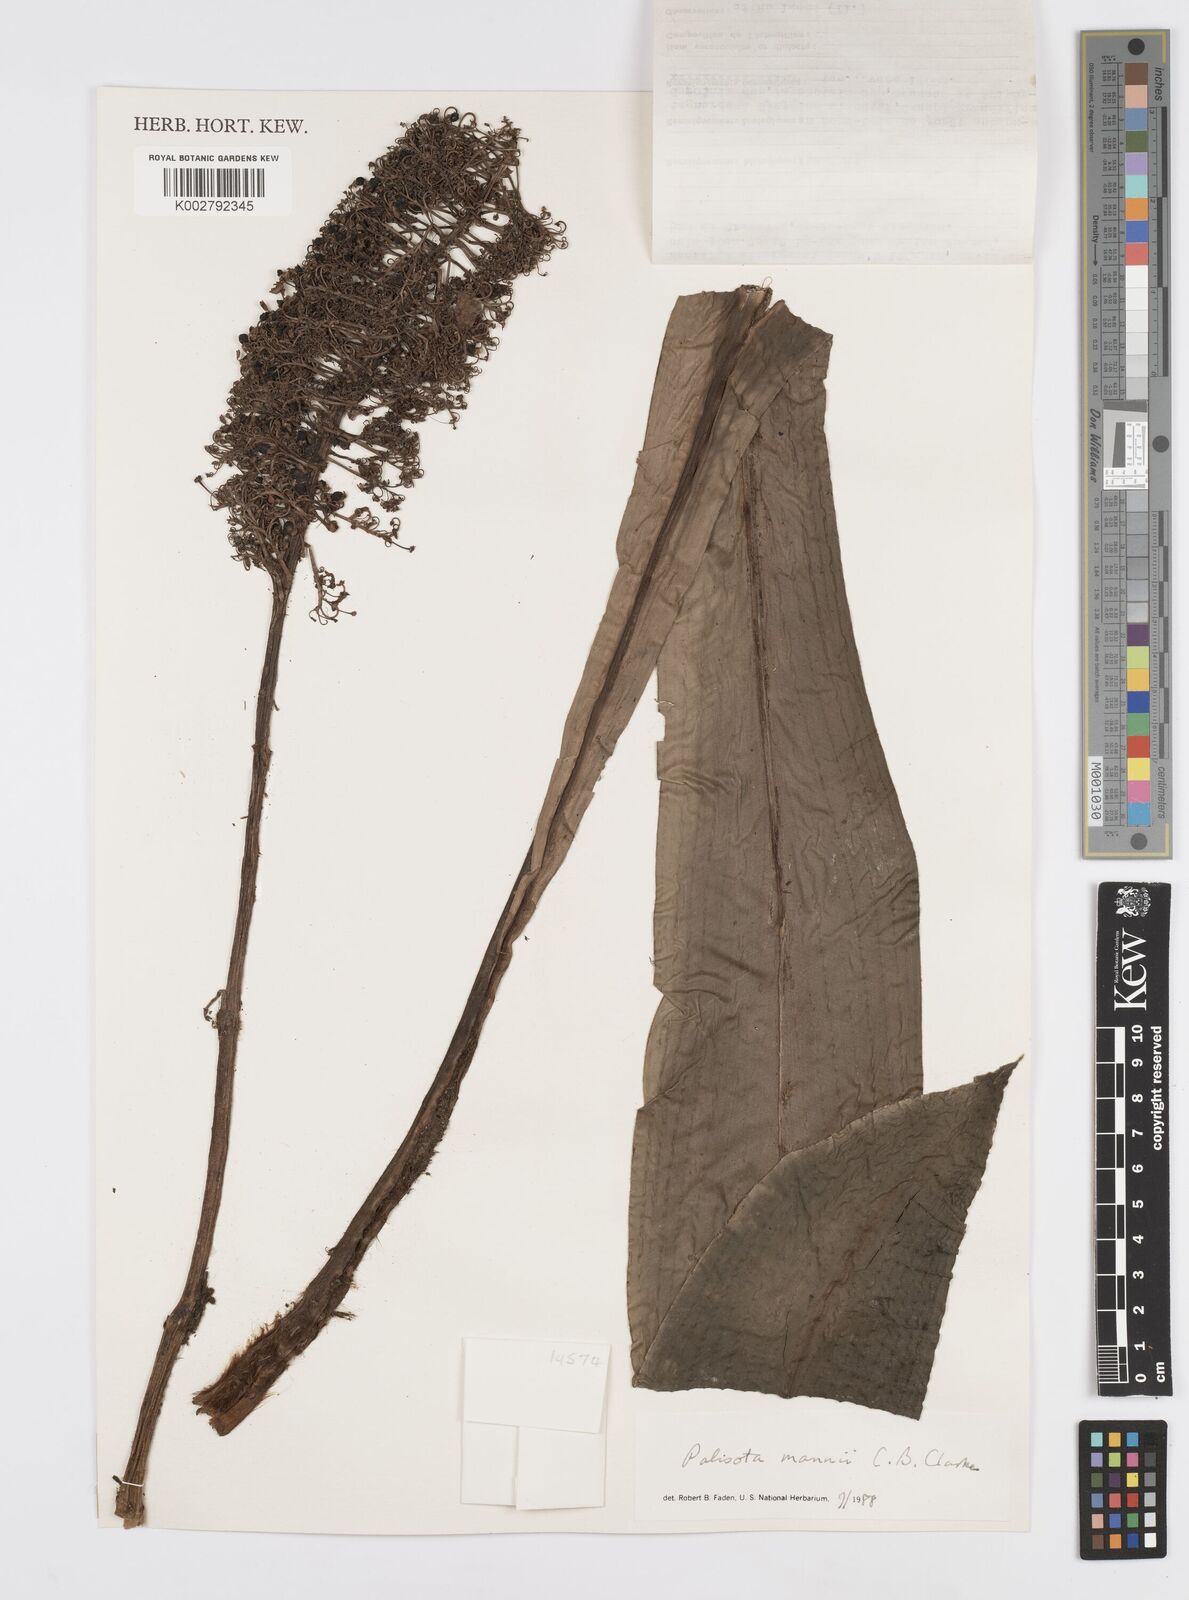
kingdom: Plantae
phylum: Tracheophyta
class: Liliopsida
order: Commelinales
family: Commelinaceae
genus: Palisota
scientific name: Palisota mannii
